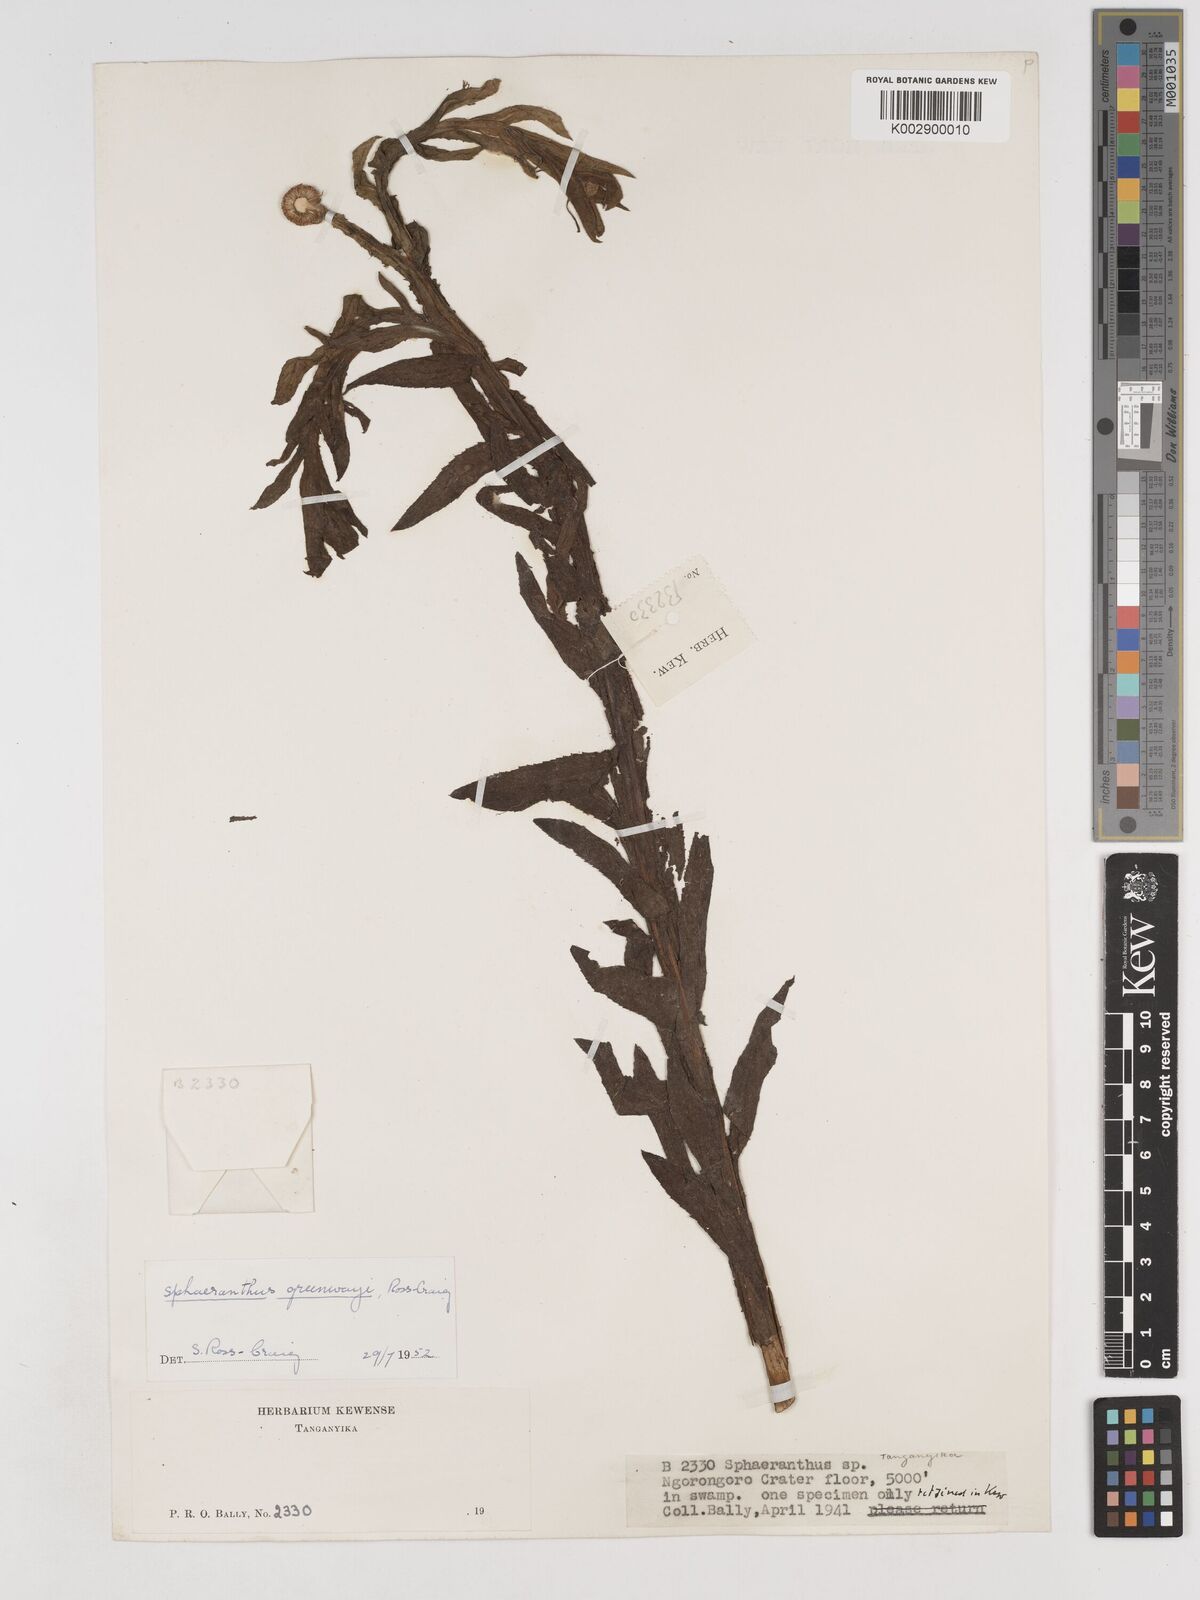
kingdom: Plantae
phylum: Tracheophyta
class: Magnoliopsida
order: Asterales
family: Asteraceae
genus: Sphaeranthus
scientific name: Sphaeranthus greenwayi
